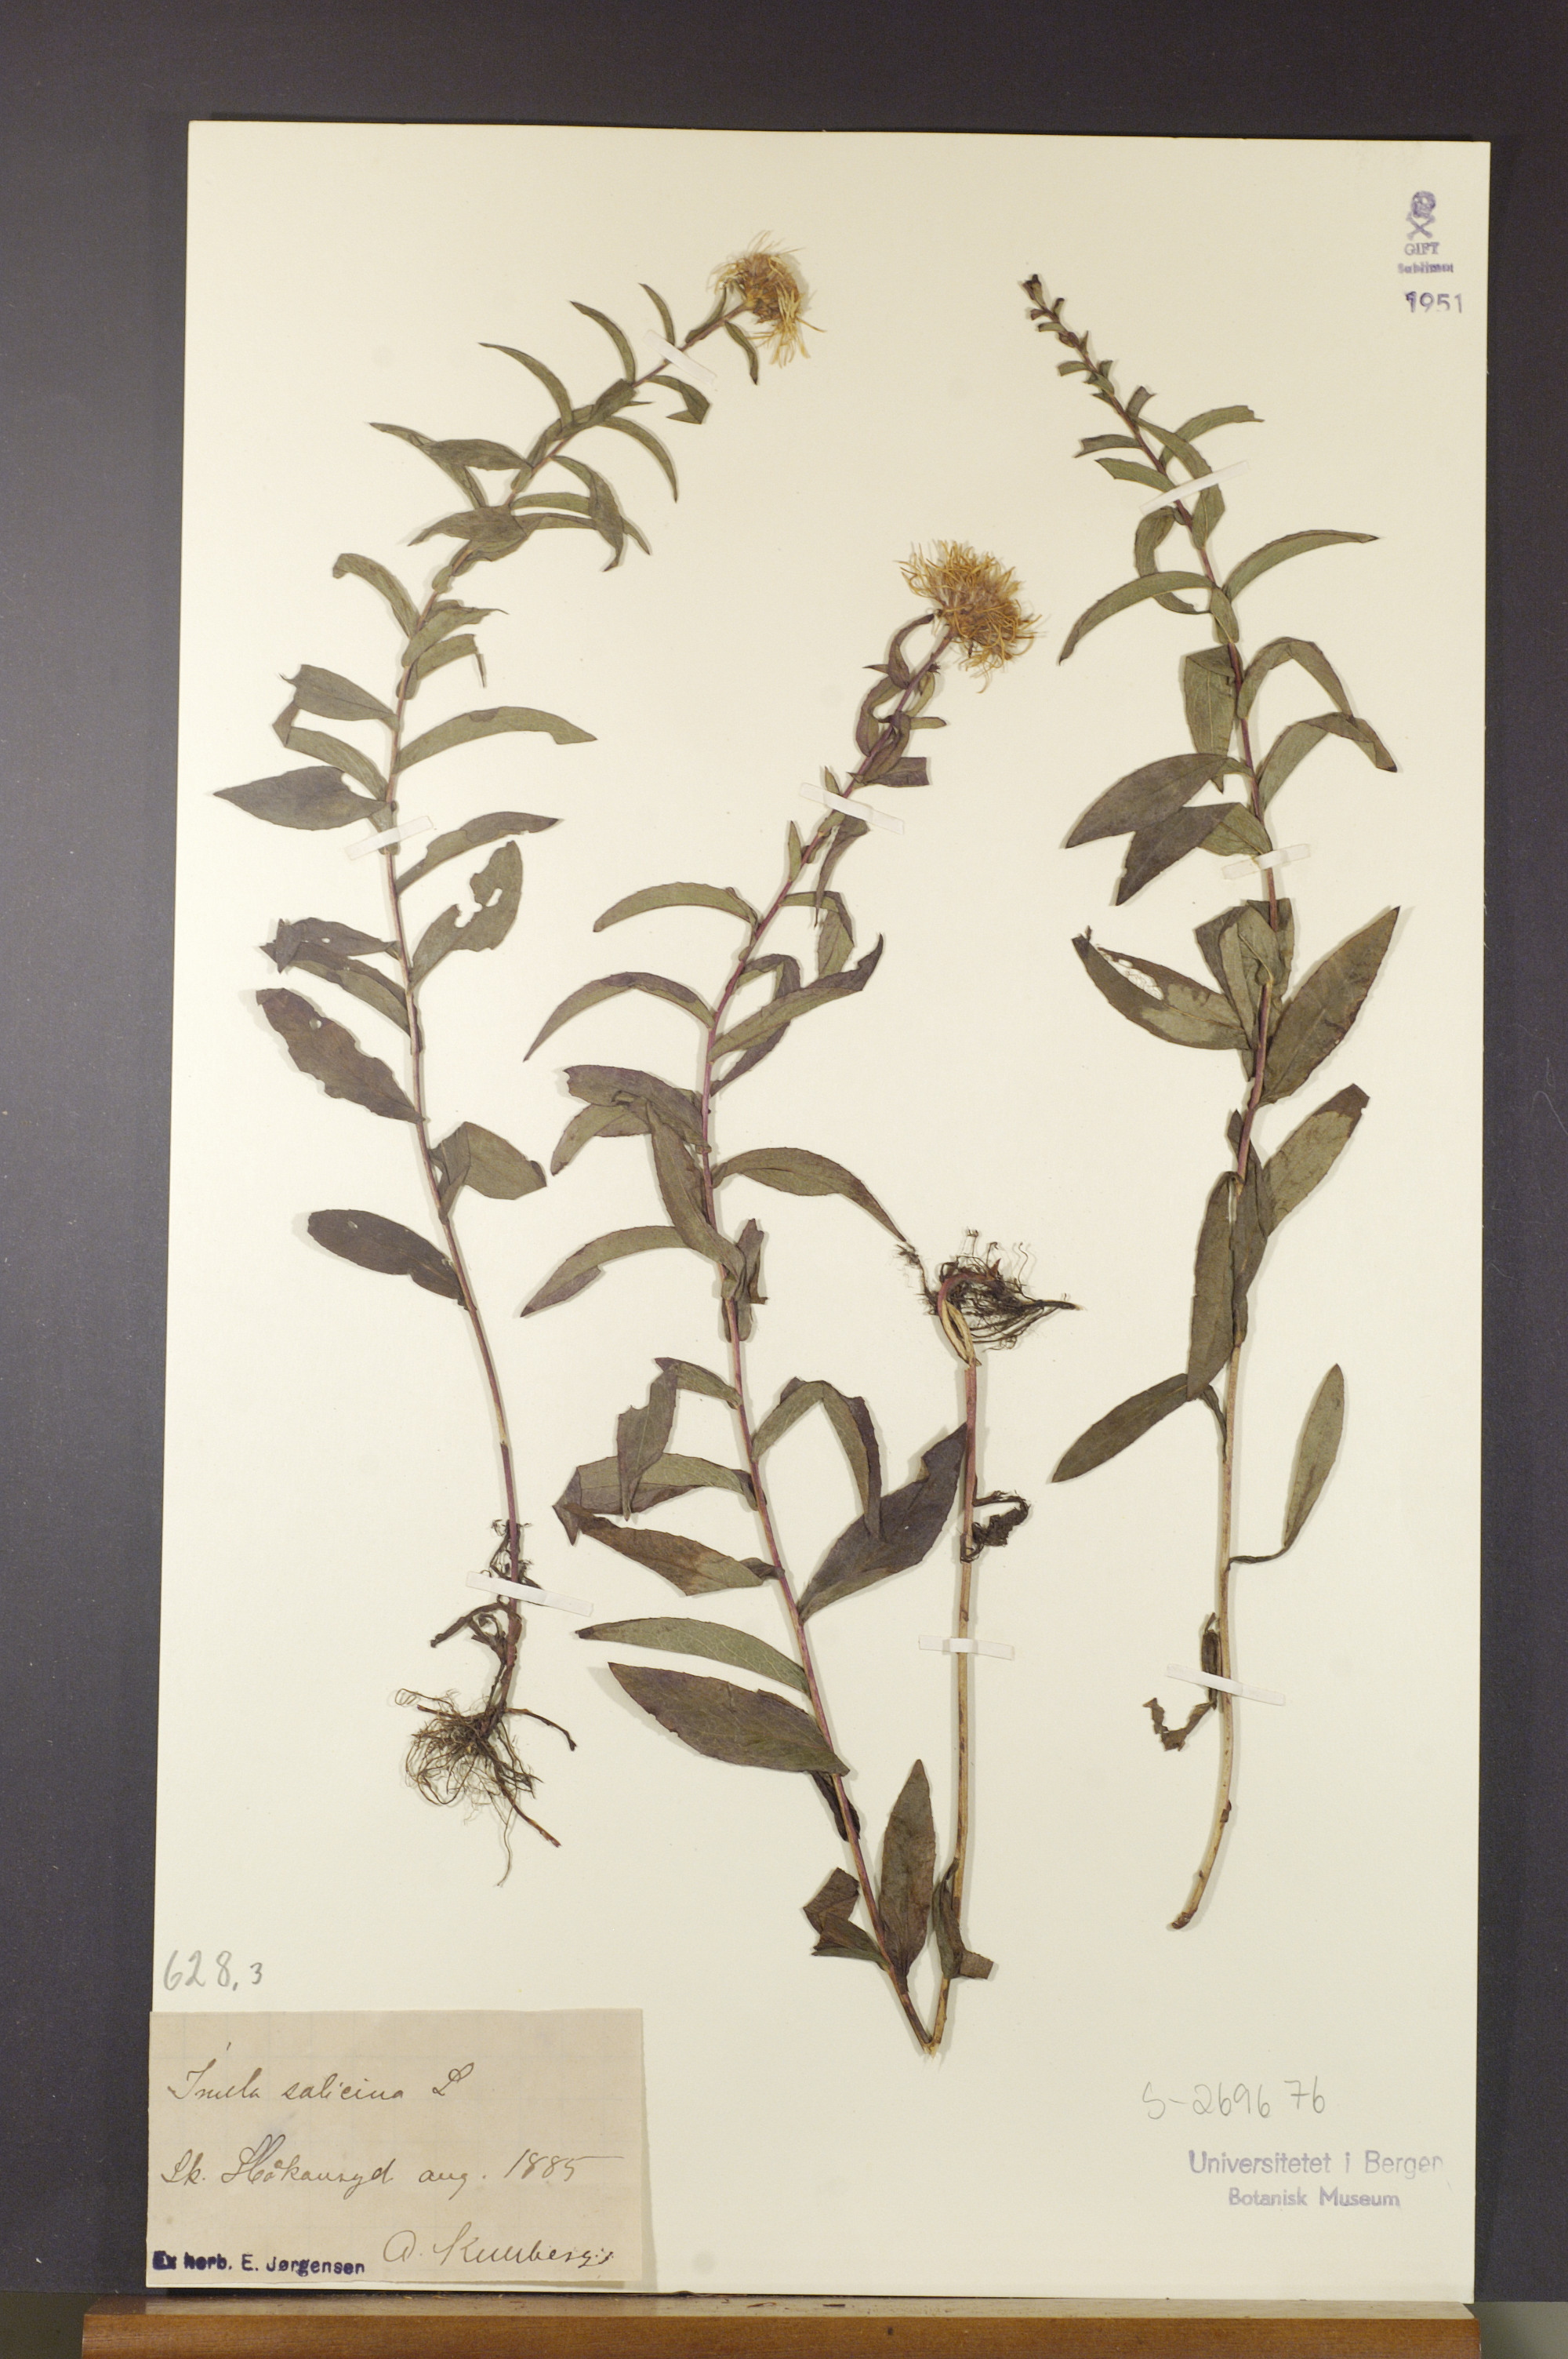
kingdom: Plantae
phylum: Tracheophyta
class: Magnoliopsida
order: Asterales
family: Asteraceae
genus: Pentanema
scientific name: Pentanema salicinum
